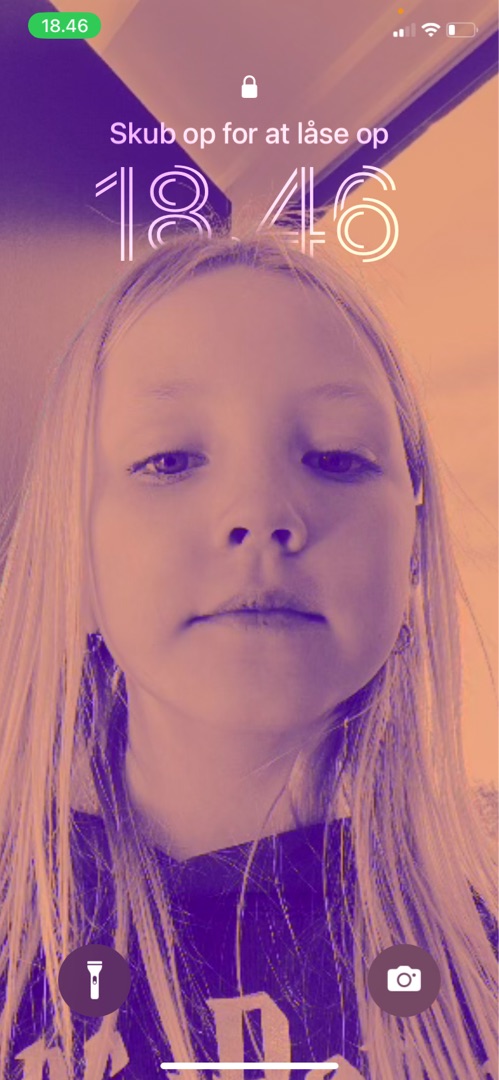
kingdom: Animalia
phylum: Chordata
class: Mammalia
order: Carnivora
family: Canidae
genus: Vulpes
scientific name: Vulpes vulpes
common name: Ræv
